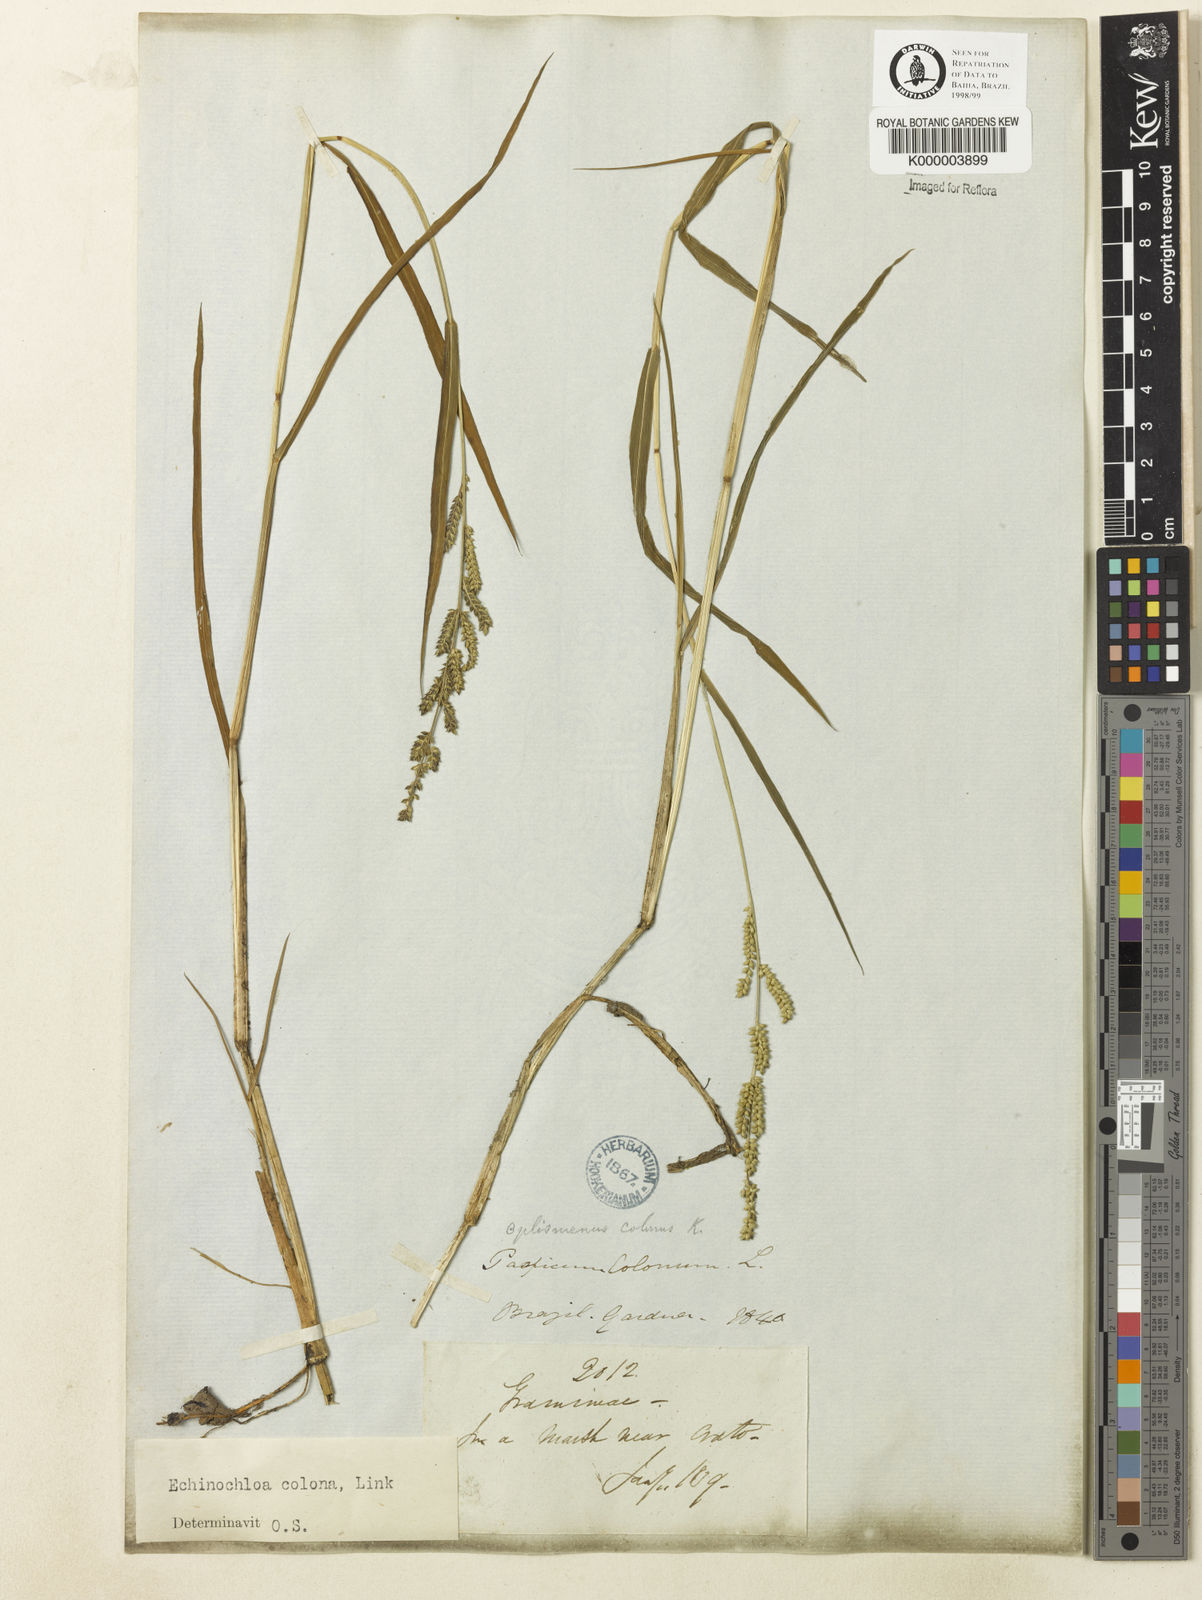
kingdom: Plantae
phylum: Tracheophyta
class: Liliopsida
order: Poales
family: Poaceae
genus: Echinochloa
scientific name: Echinochloa colonum
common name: Jungle rice
